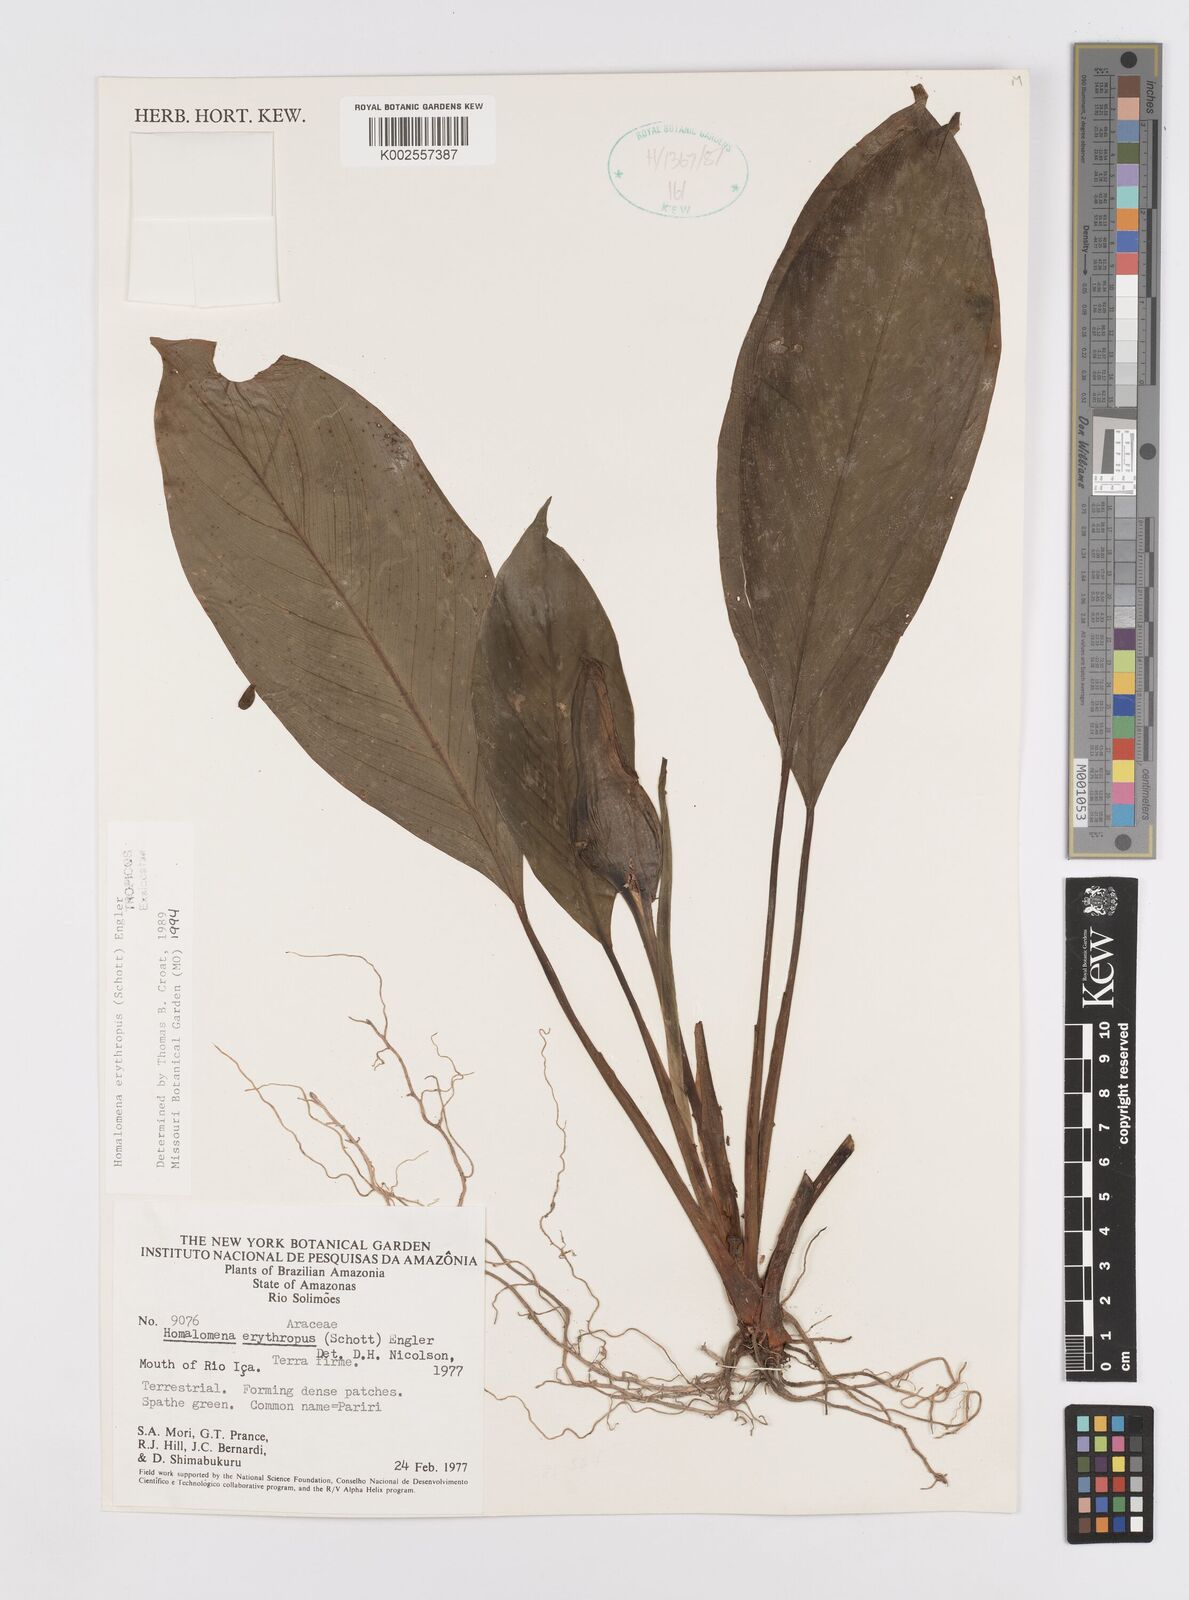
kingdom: Plantae
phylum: Tracheophyta
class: Liliopsida
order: Alismatales
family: Araceae
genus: Adelonema
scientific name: Adelonema
